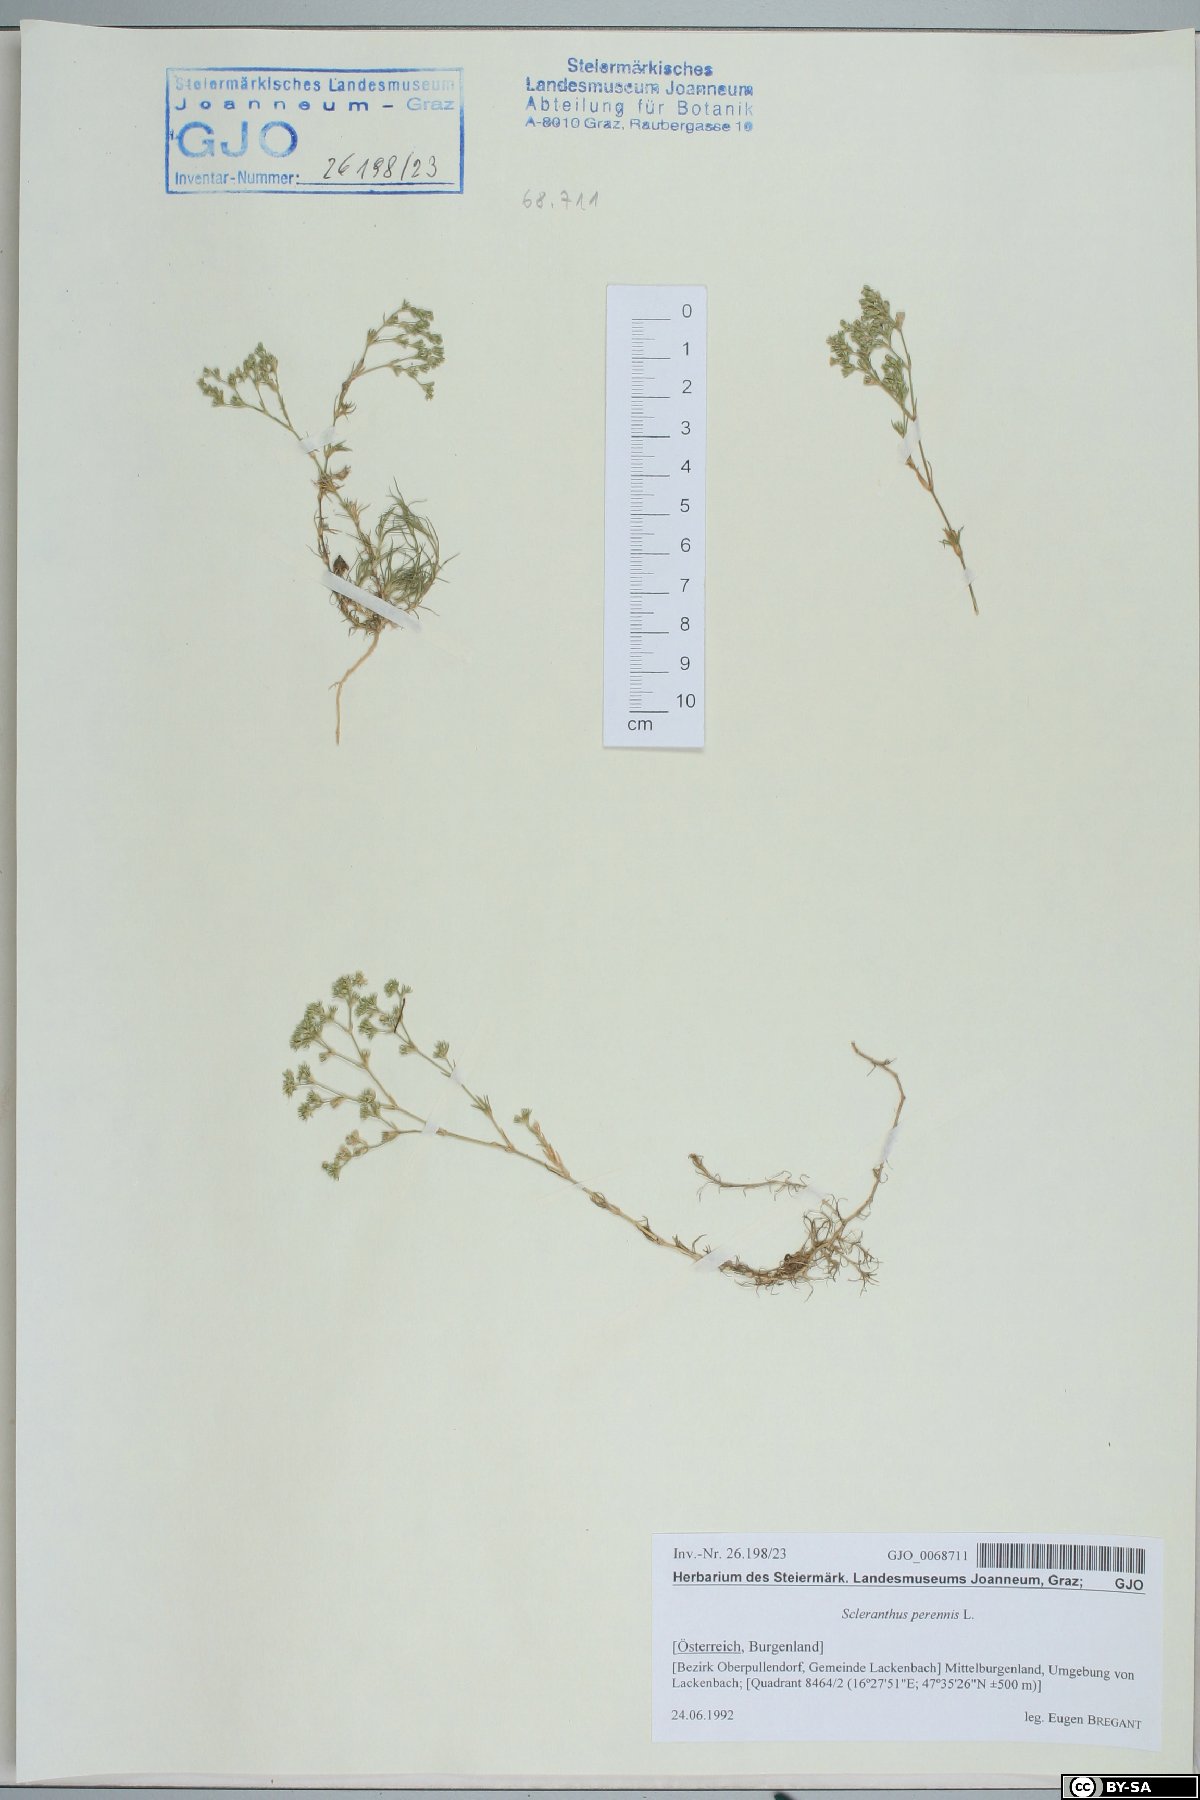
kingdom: Plantae
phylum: Tracheophyta
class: Magnoliopsida
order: Caryophyllales
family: Caryophyllaceae
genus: Scleranthus
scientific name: Scleranthus perennis
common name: Perennial knawel
